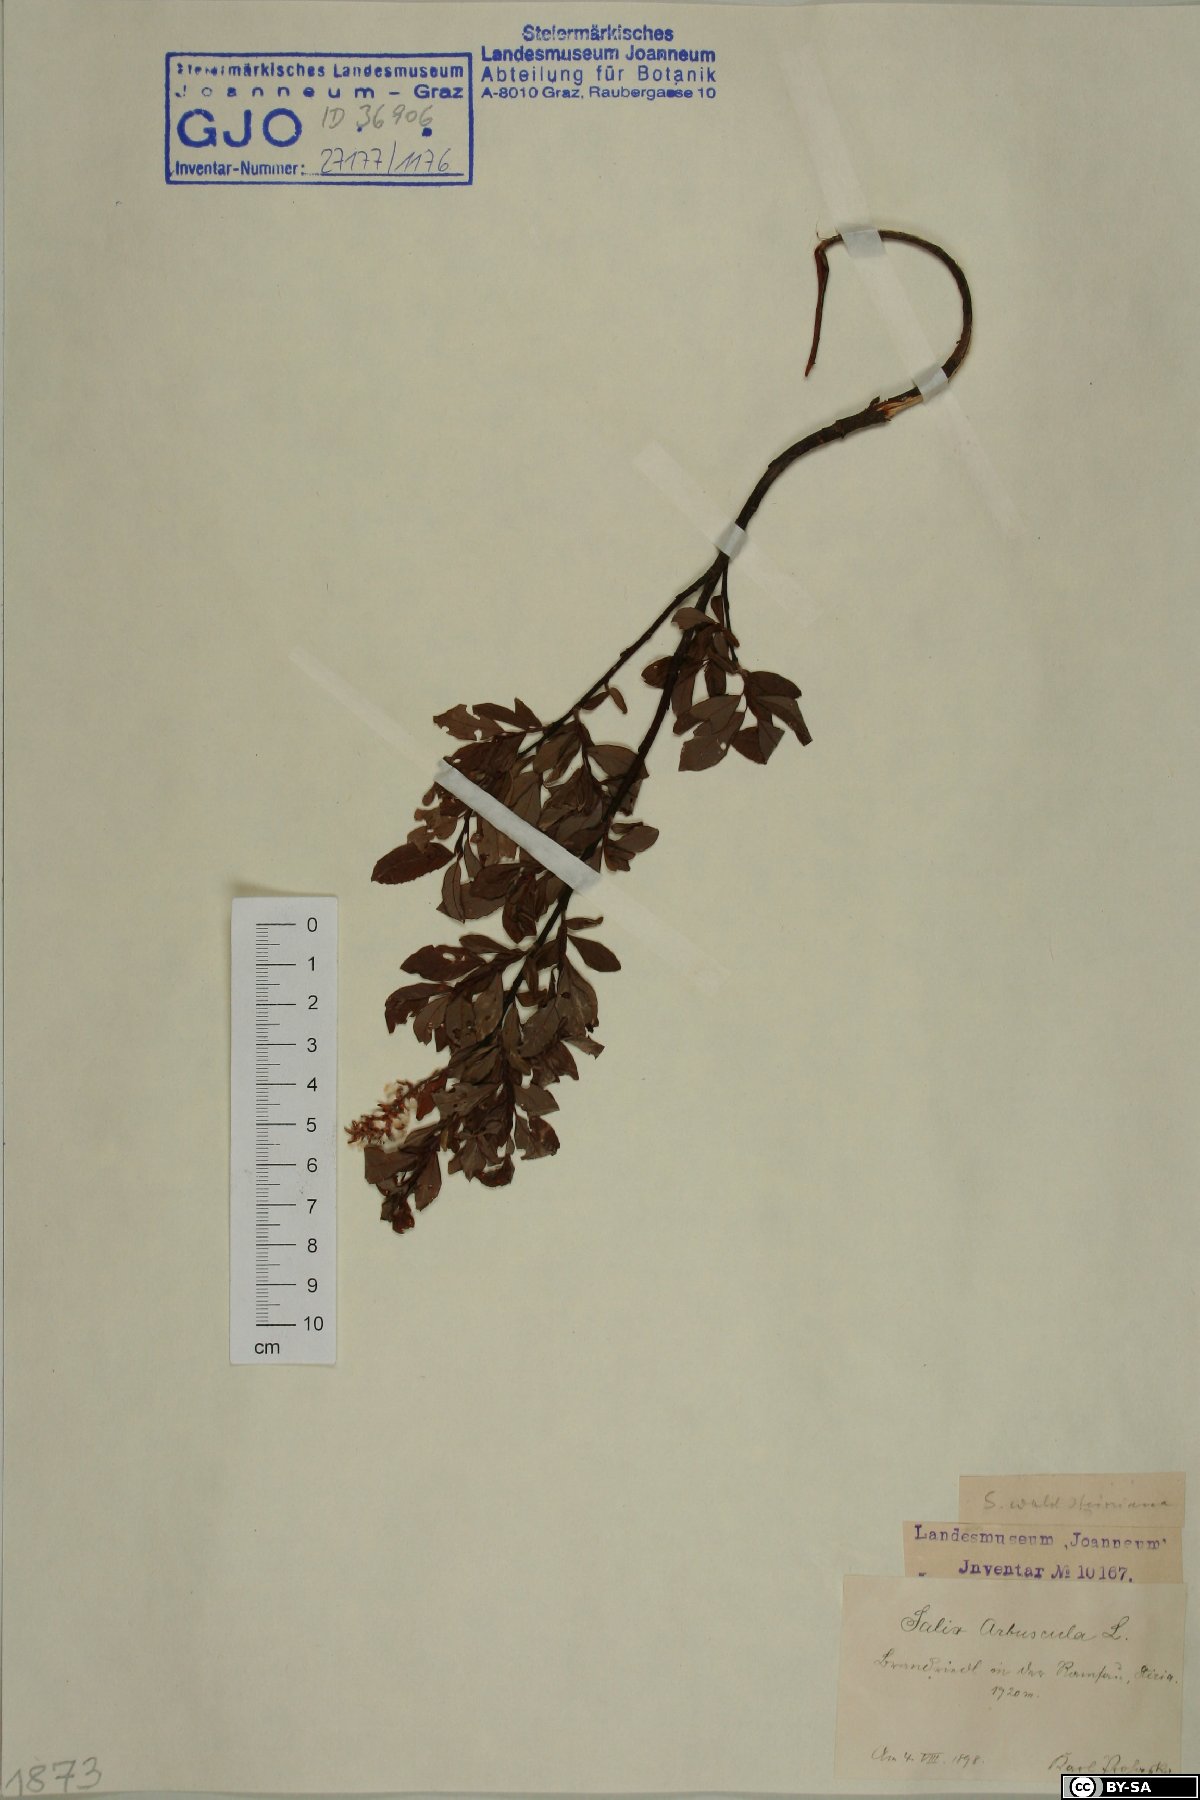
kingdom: Plantae
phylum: Tracheophyta
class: Magnoliopsida
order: Malpighiales
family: Salicaceae
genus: Salix
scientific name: Salix waldsteiniana
